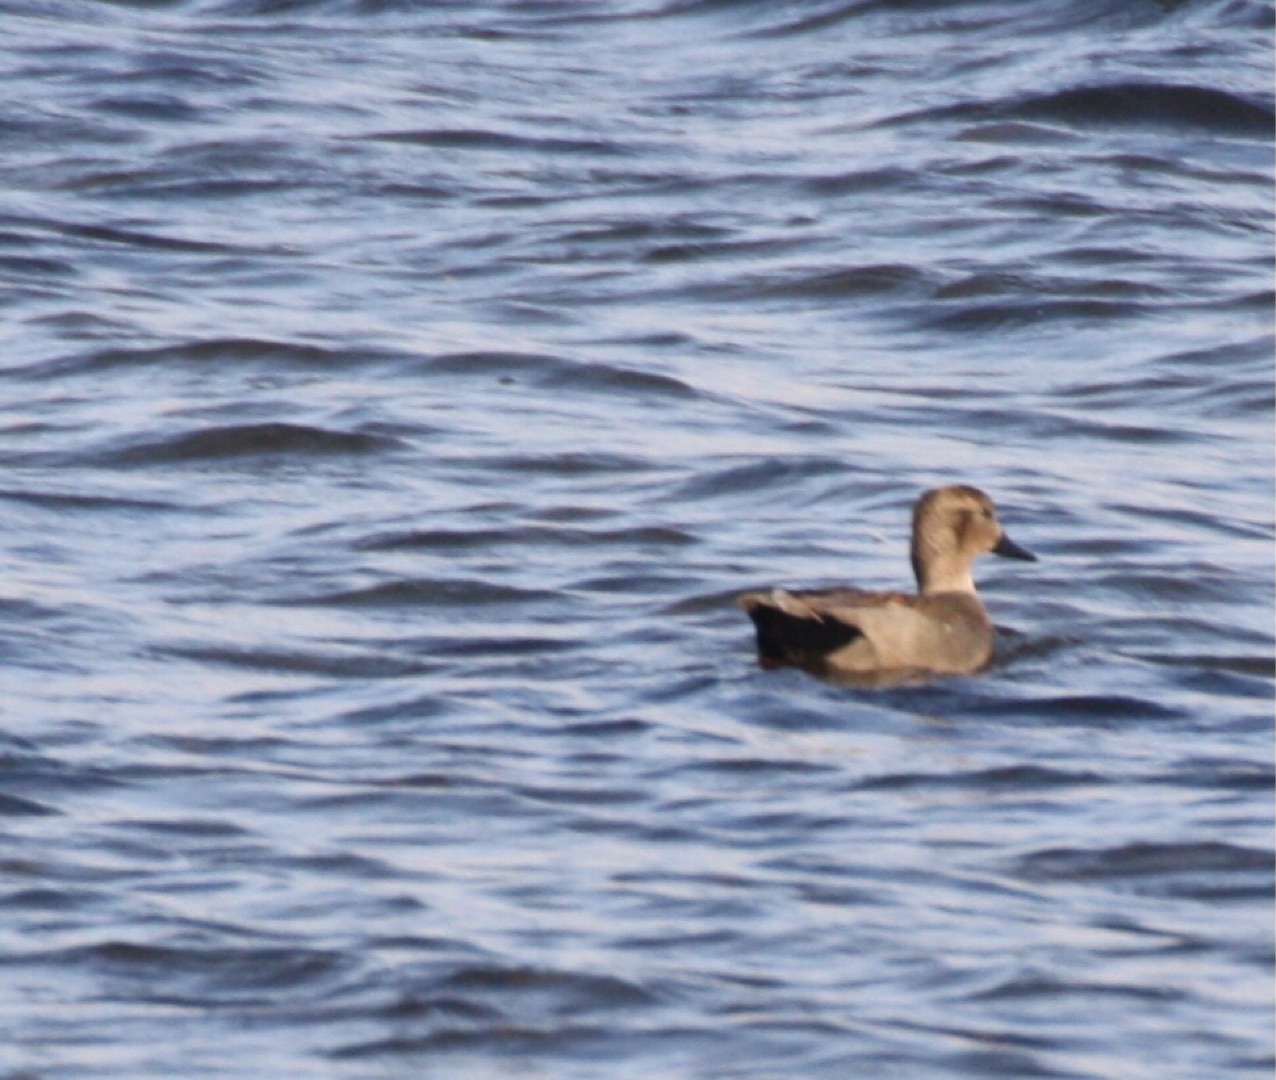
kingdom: Animalia
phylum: Chordata
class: Aves
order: Anseriformes
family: Anatidae
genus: Mareca
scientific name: Mareca strepera
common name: Knarand
